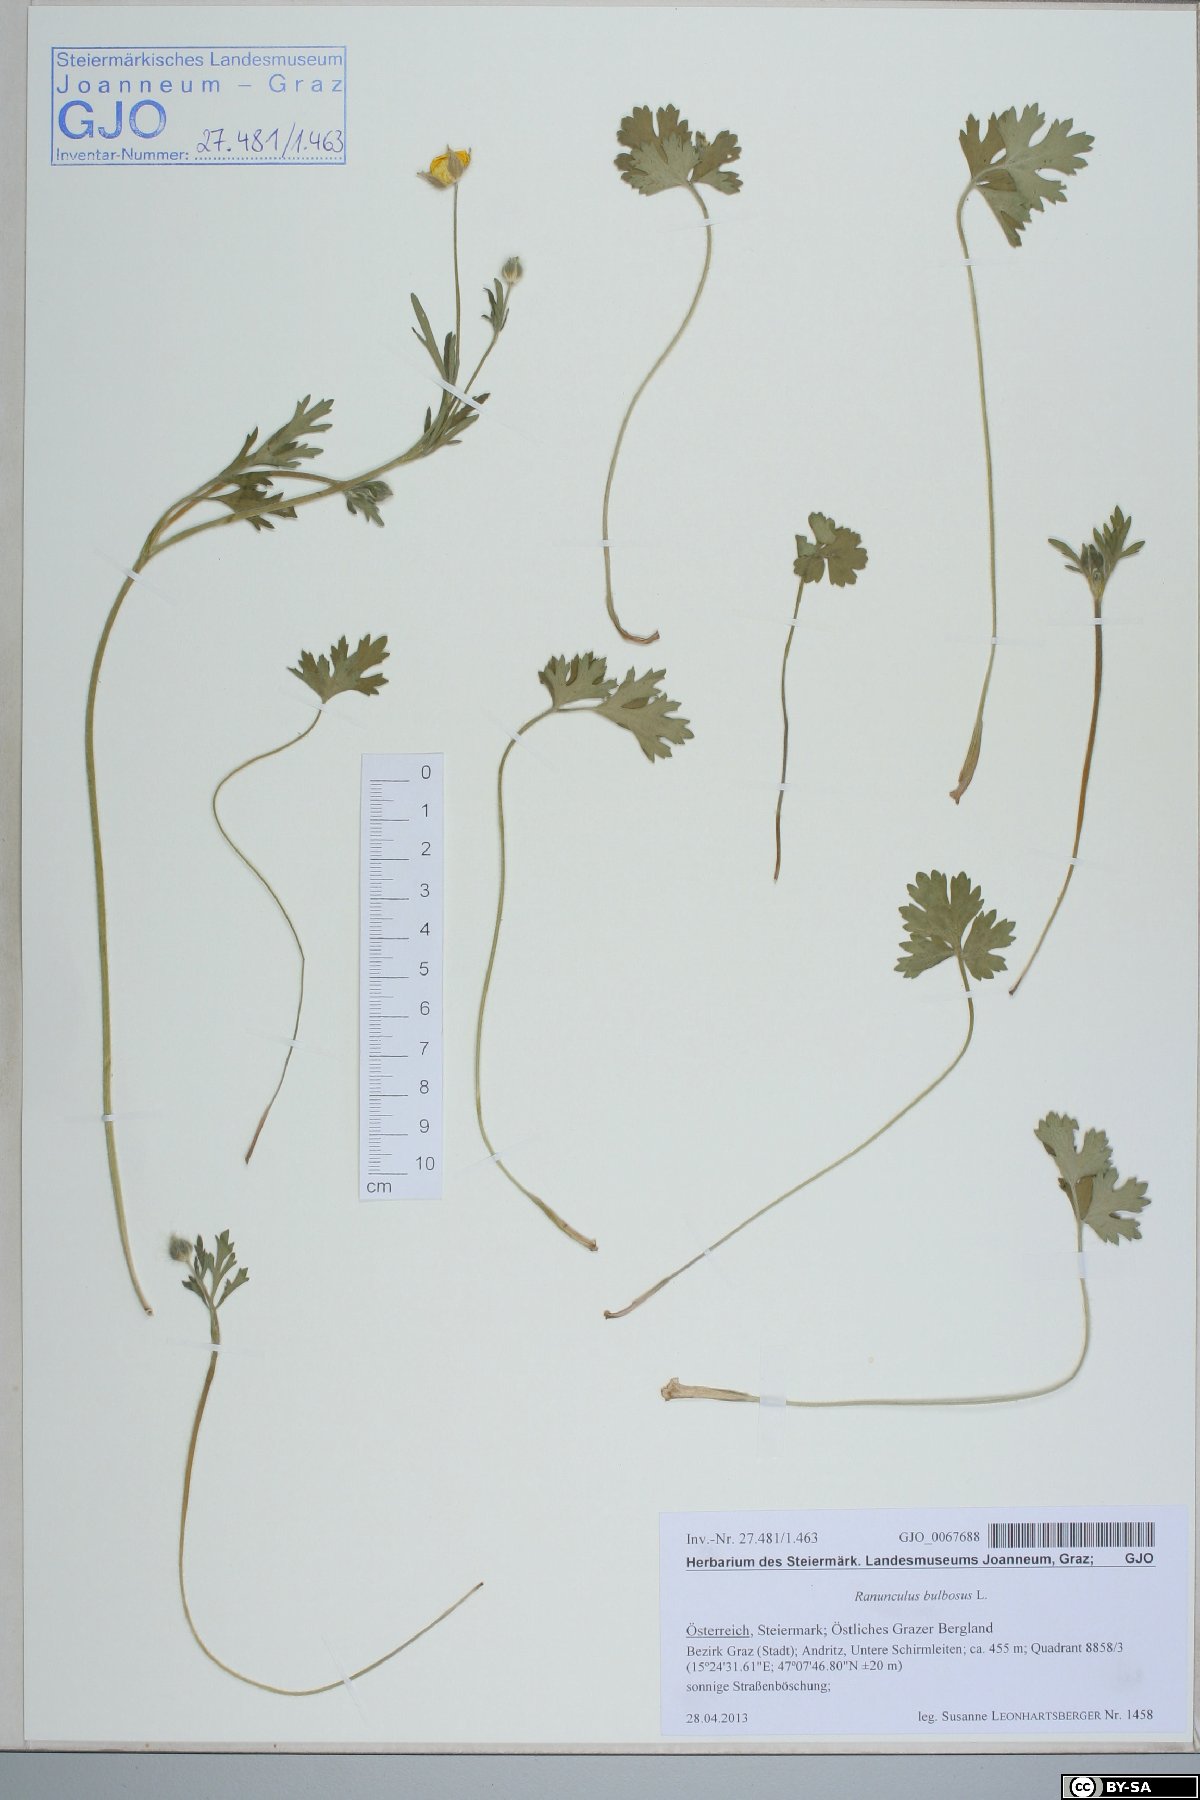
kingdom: Plantae
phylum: Tracheophyta
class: Magnoliopsida
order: Ranunculales
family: Ranunculaceae
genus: Ranunculus
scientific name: Ranunculus bulbosus
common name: Bulbous buttercup
